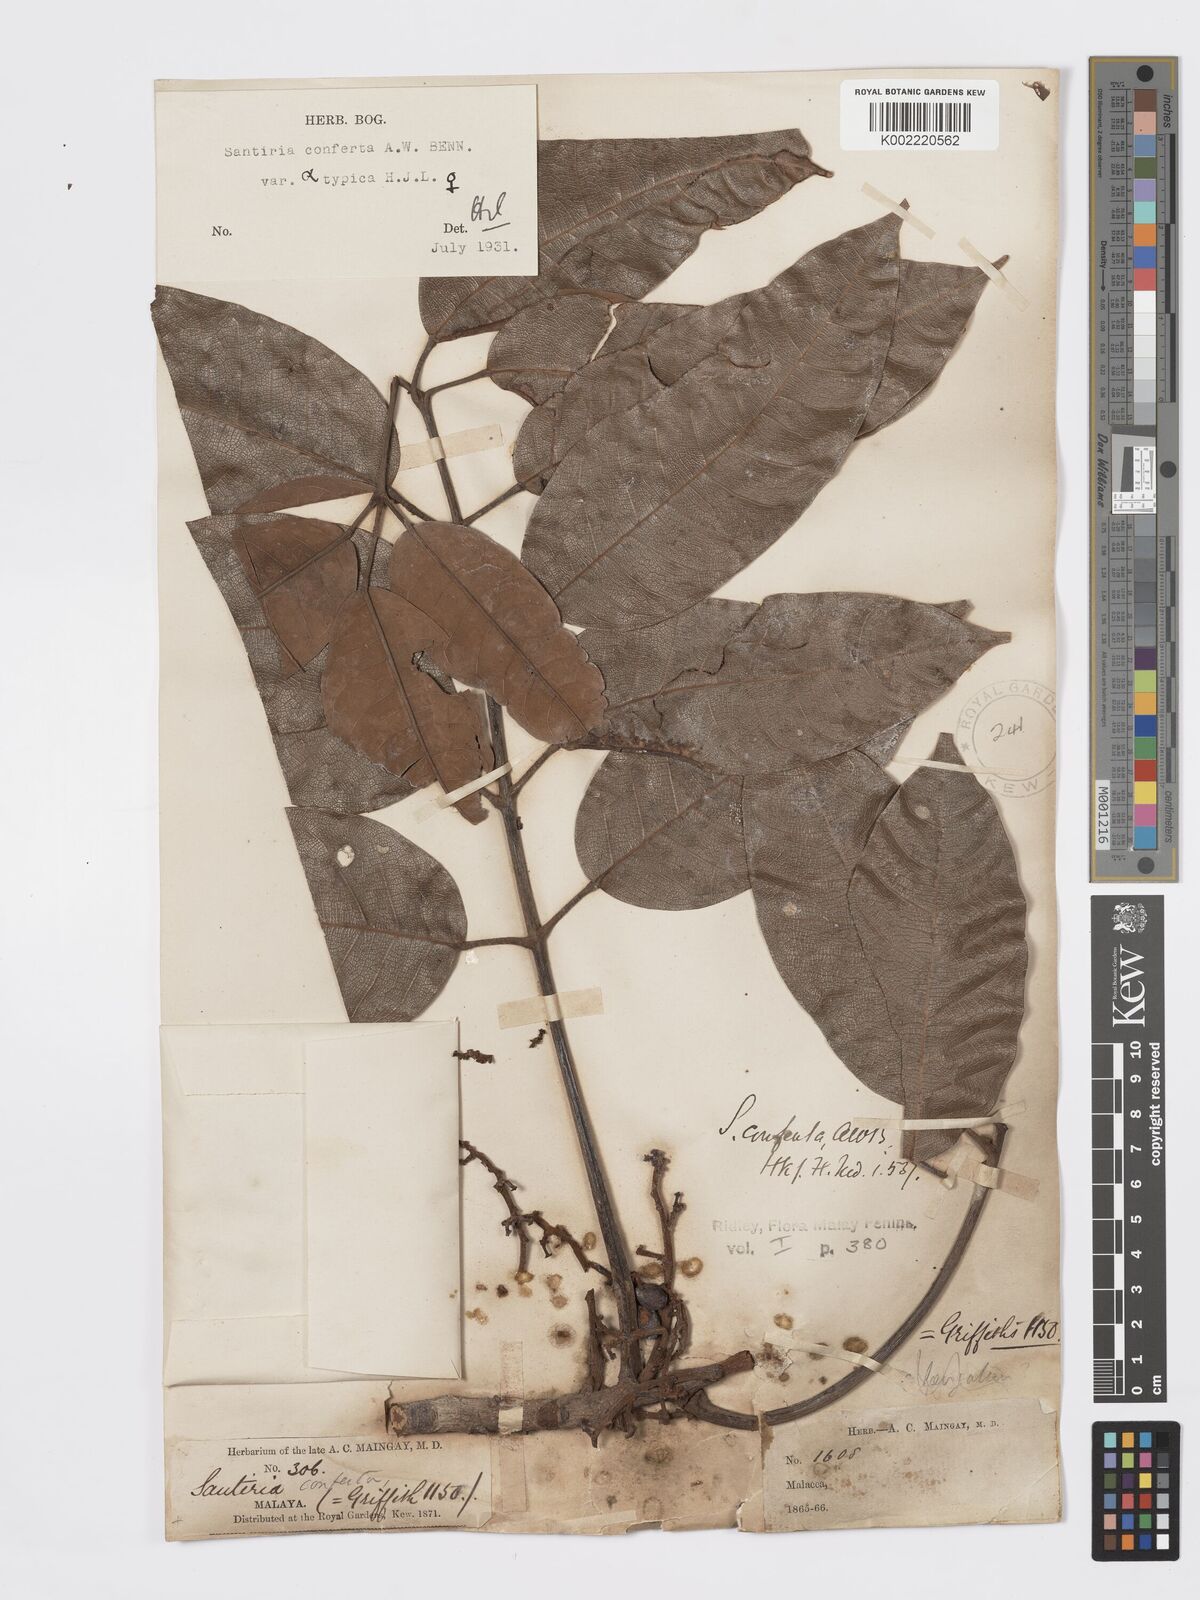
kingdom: Plantae
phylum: Tracheophyta
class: Magnoliopsida
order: Sapindales
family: Burseraceae
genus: Santiria
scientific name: Santiria conferta
